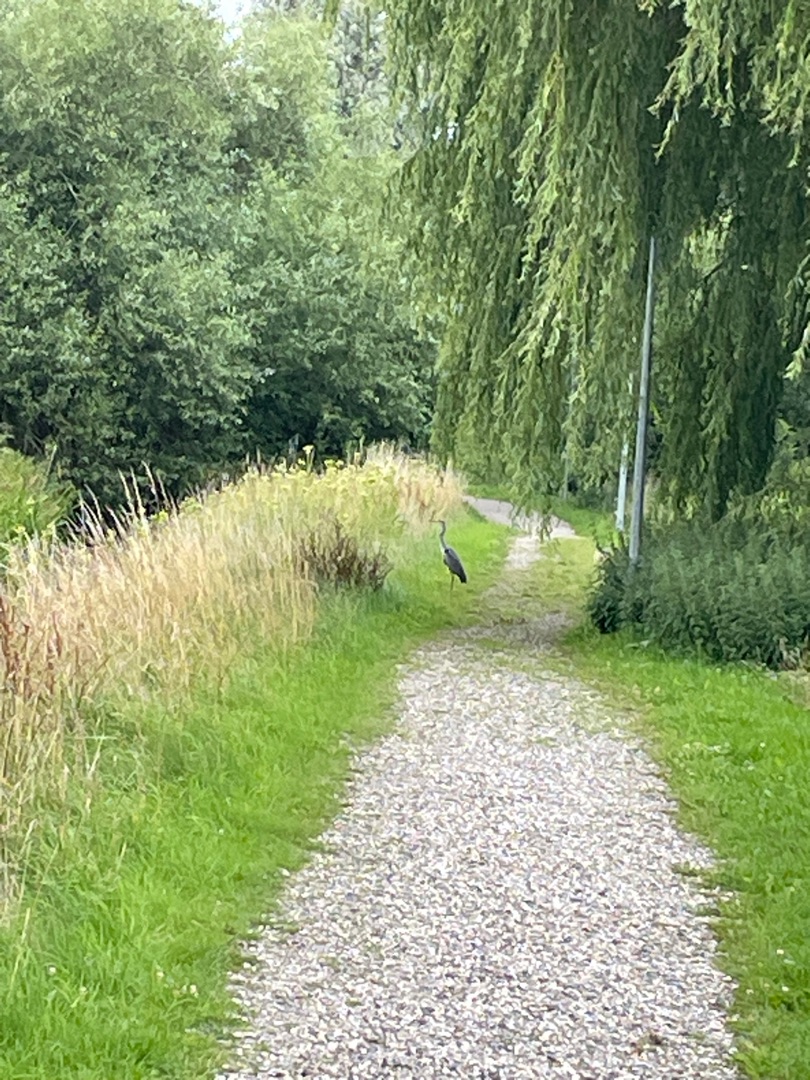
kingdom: Animalia
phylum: Chordata
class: Aves
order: Pelecaniformes
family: Ardeidae
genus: Ardea
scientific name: Ardea cinerea
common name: Fiskehejre
